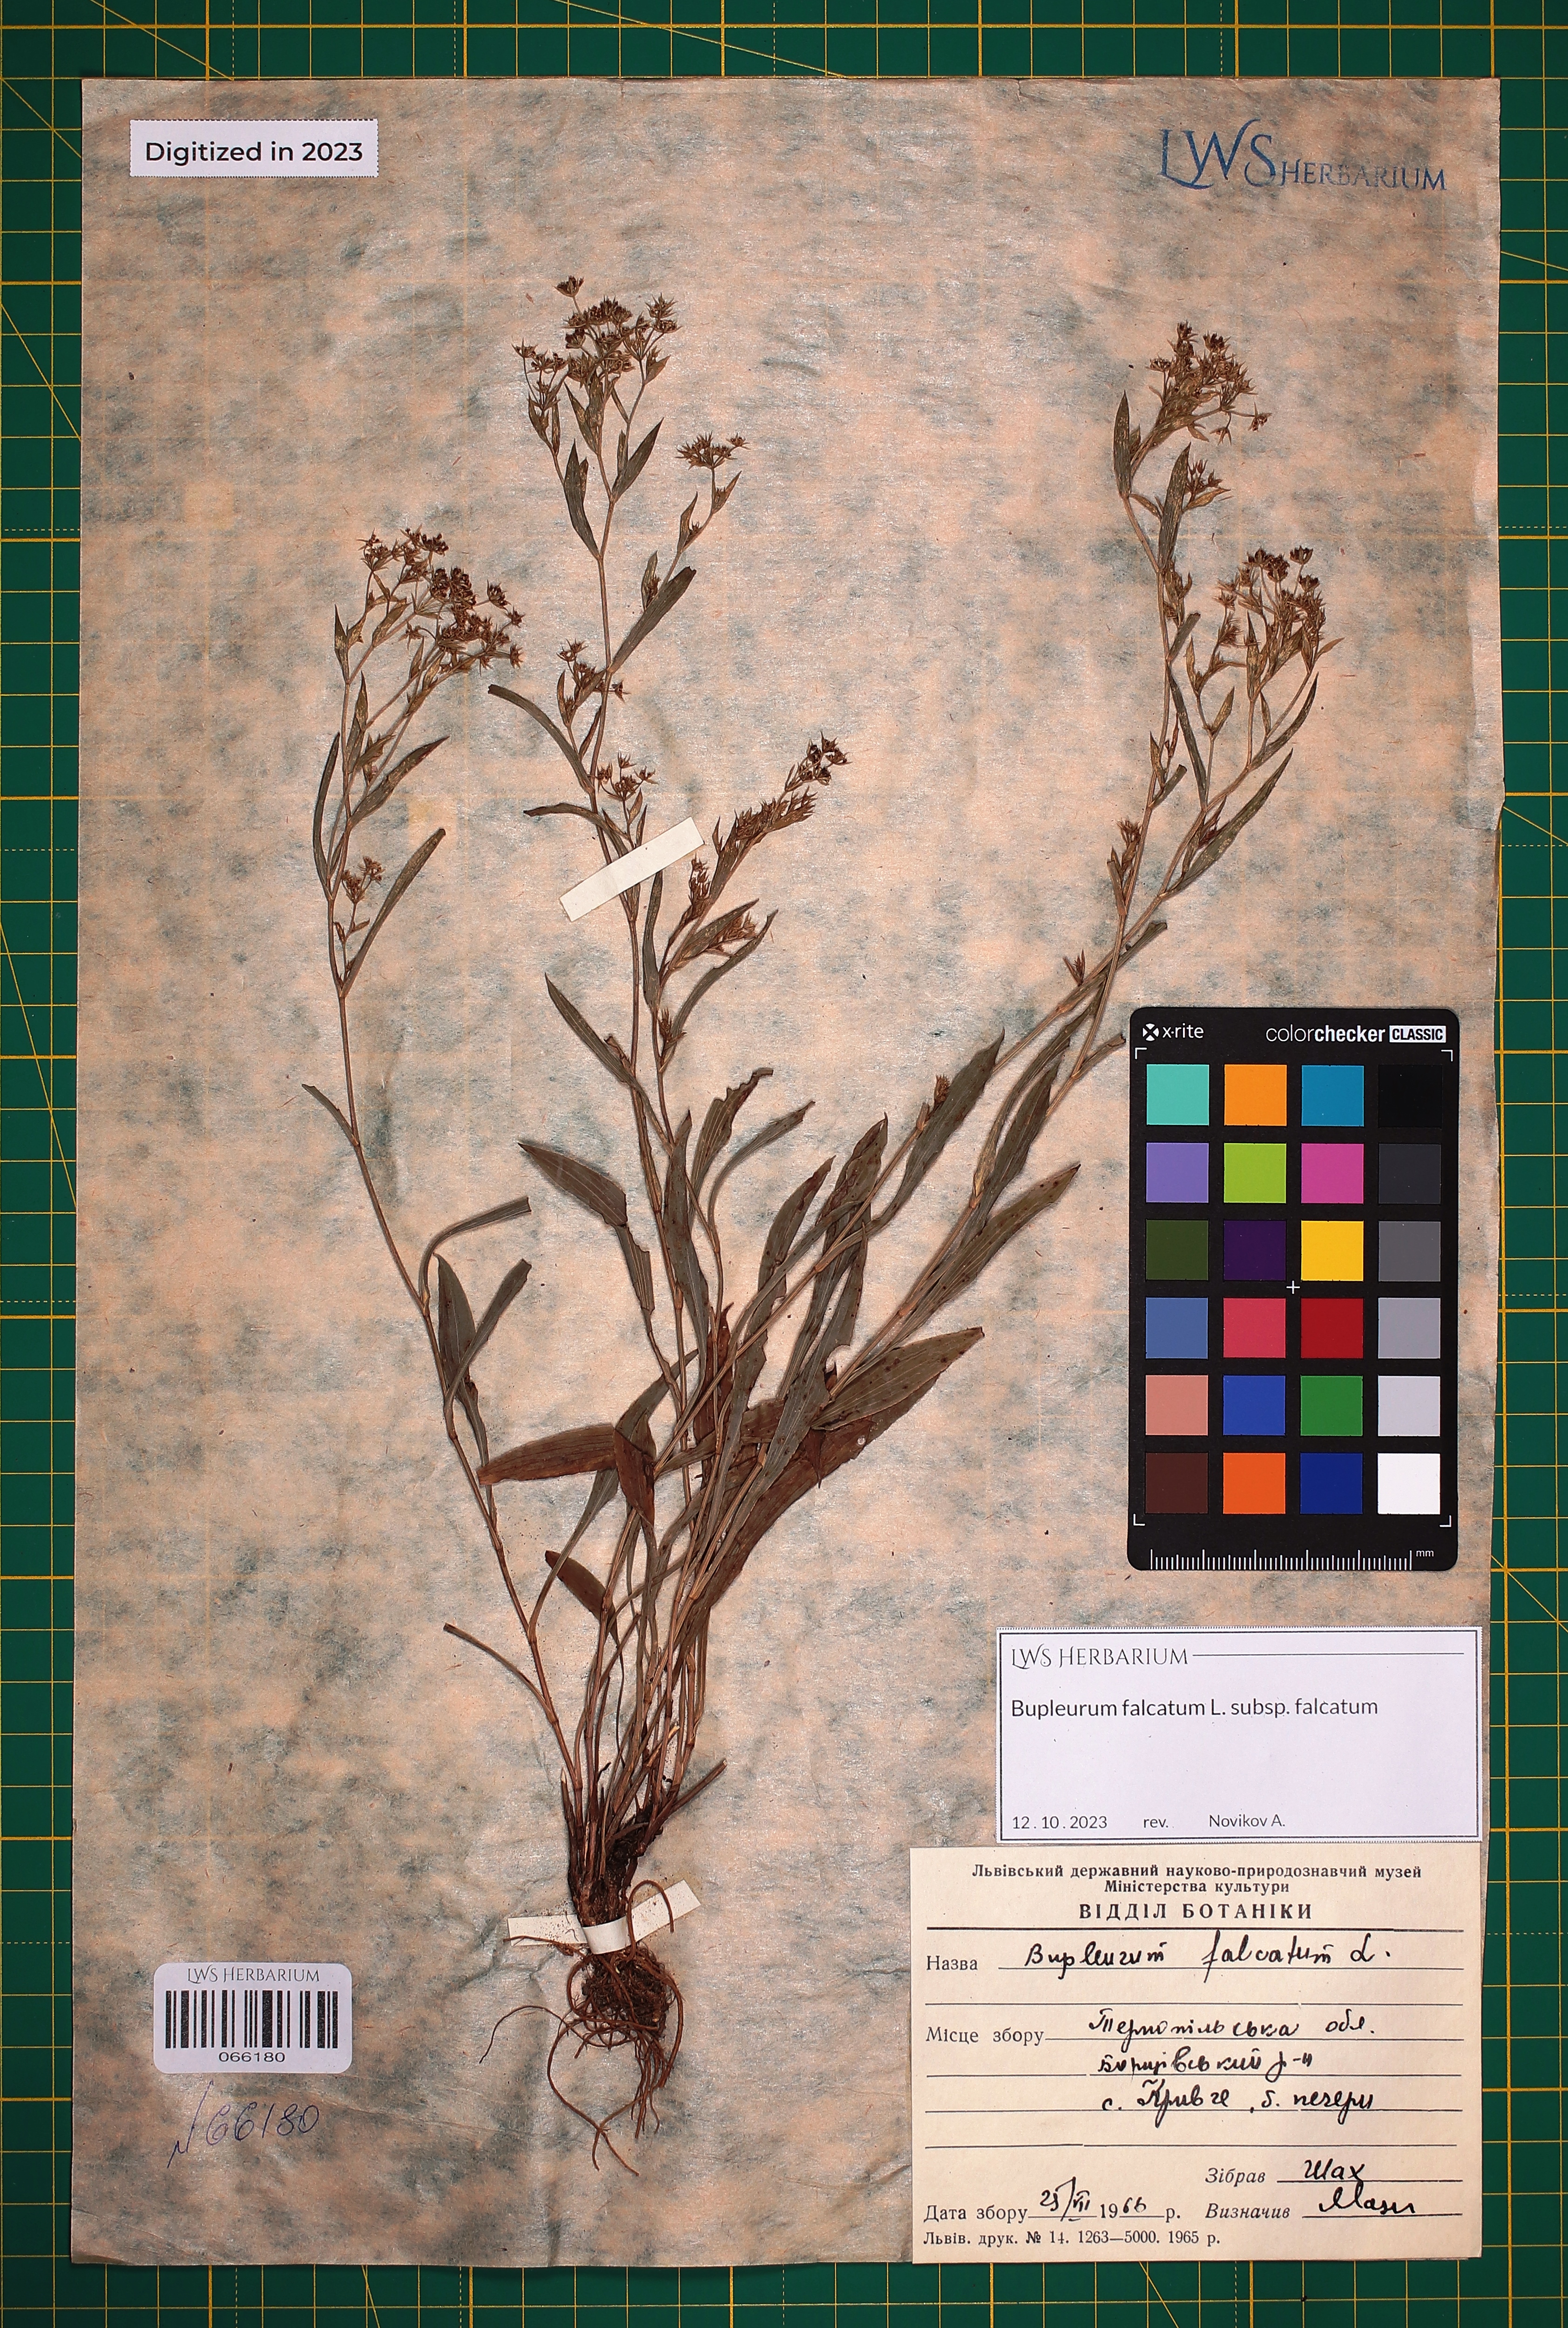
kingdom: Plantae
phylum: Tracheophyta
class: Magnoliopsida
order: Apiales
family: Apiaceae
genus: Bupleurum
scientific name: Bupleurum falcatum
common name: Sickle-leaved hare's-ear
